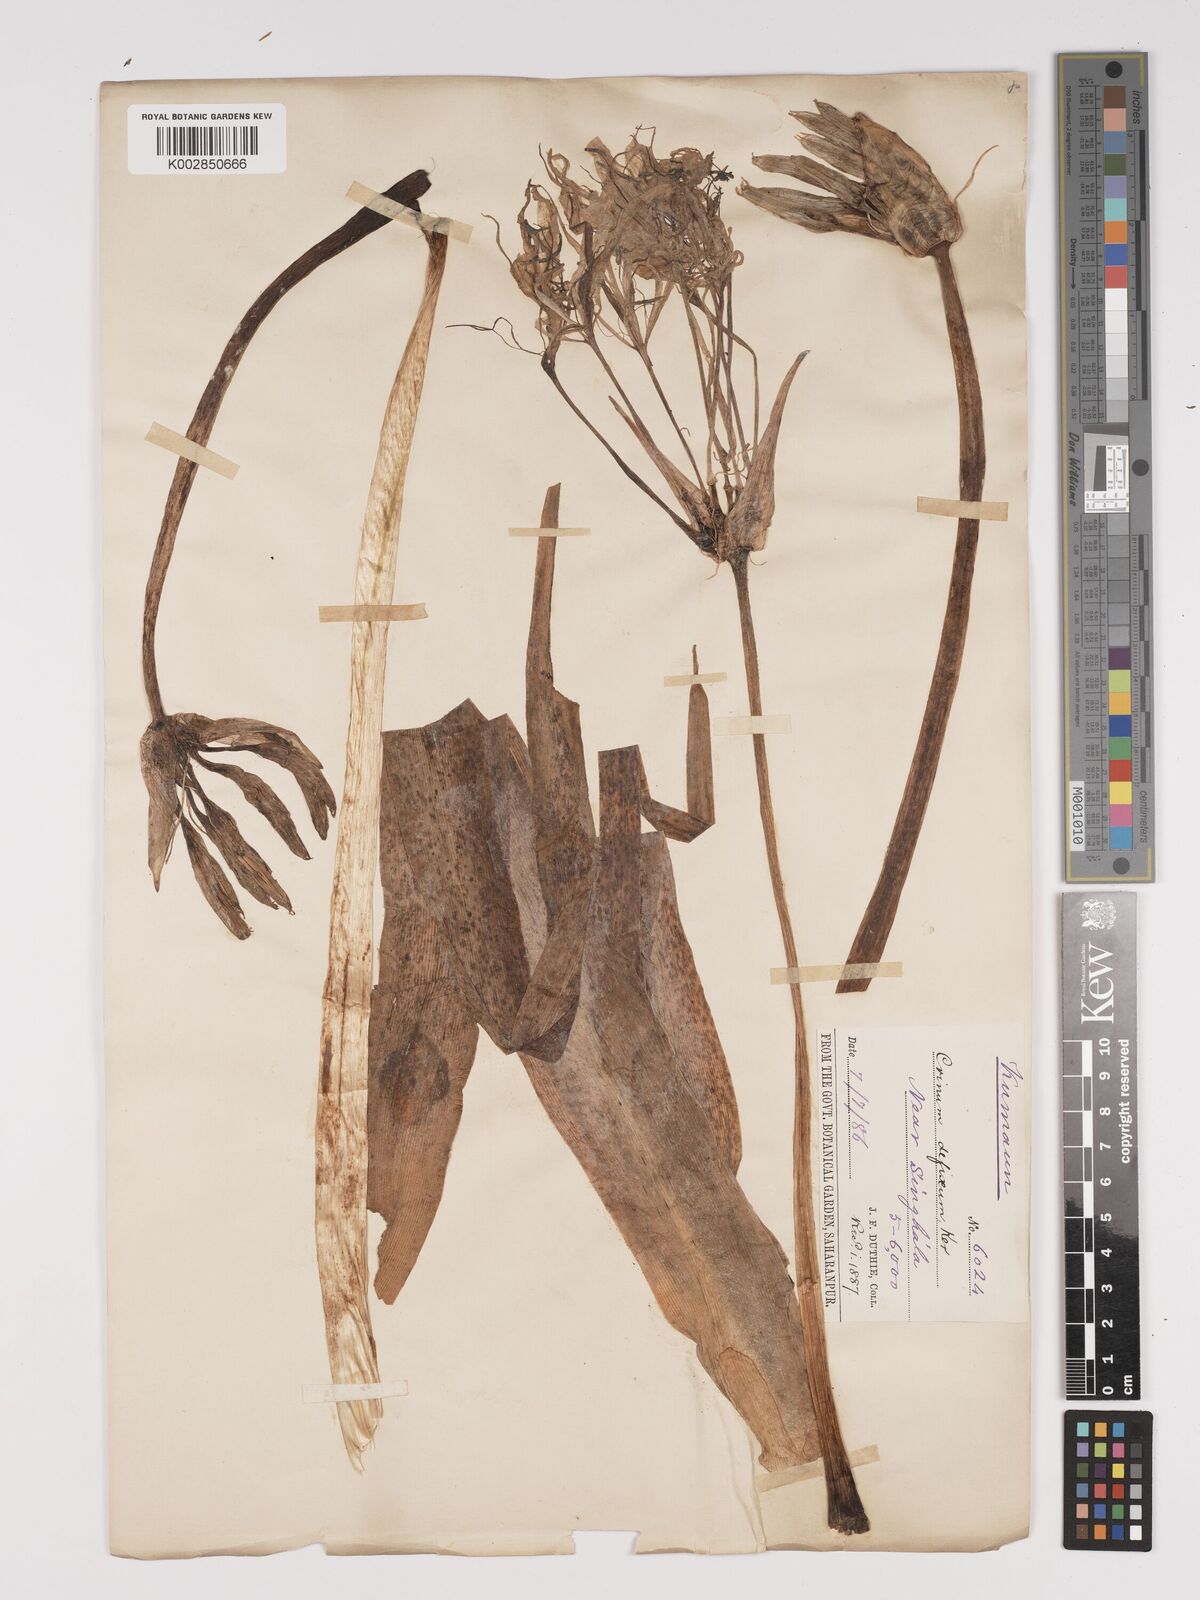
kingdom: Plantae
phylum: Tracheophyta
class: Liliopsida
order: Asparagales
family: Amaryllidaceae
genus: Crinum
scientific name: Crinum amoenum
